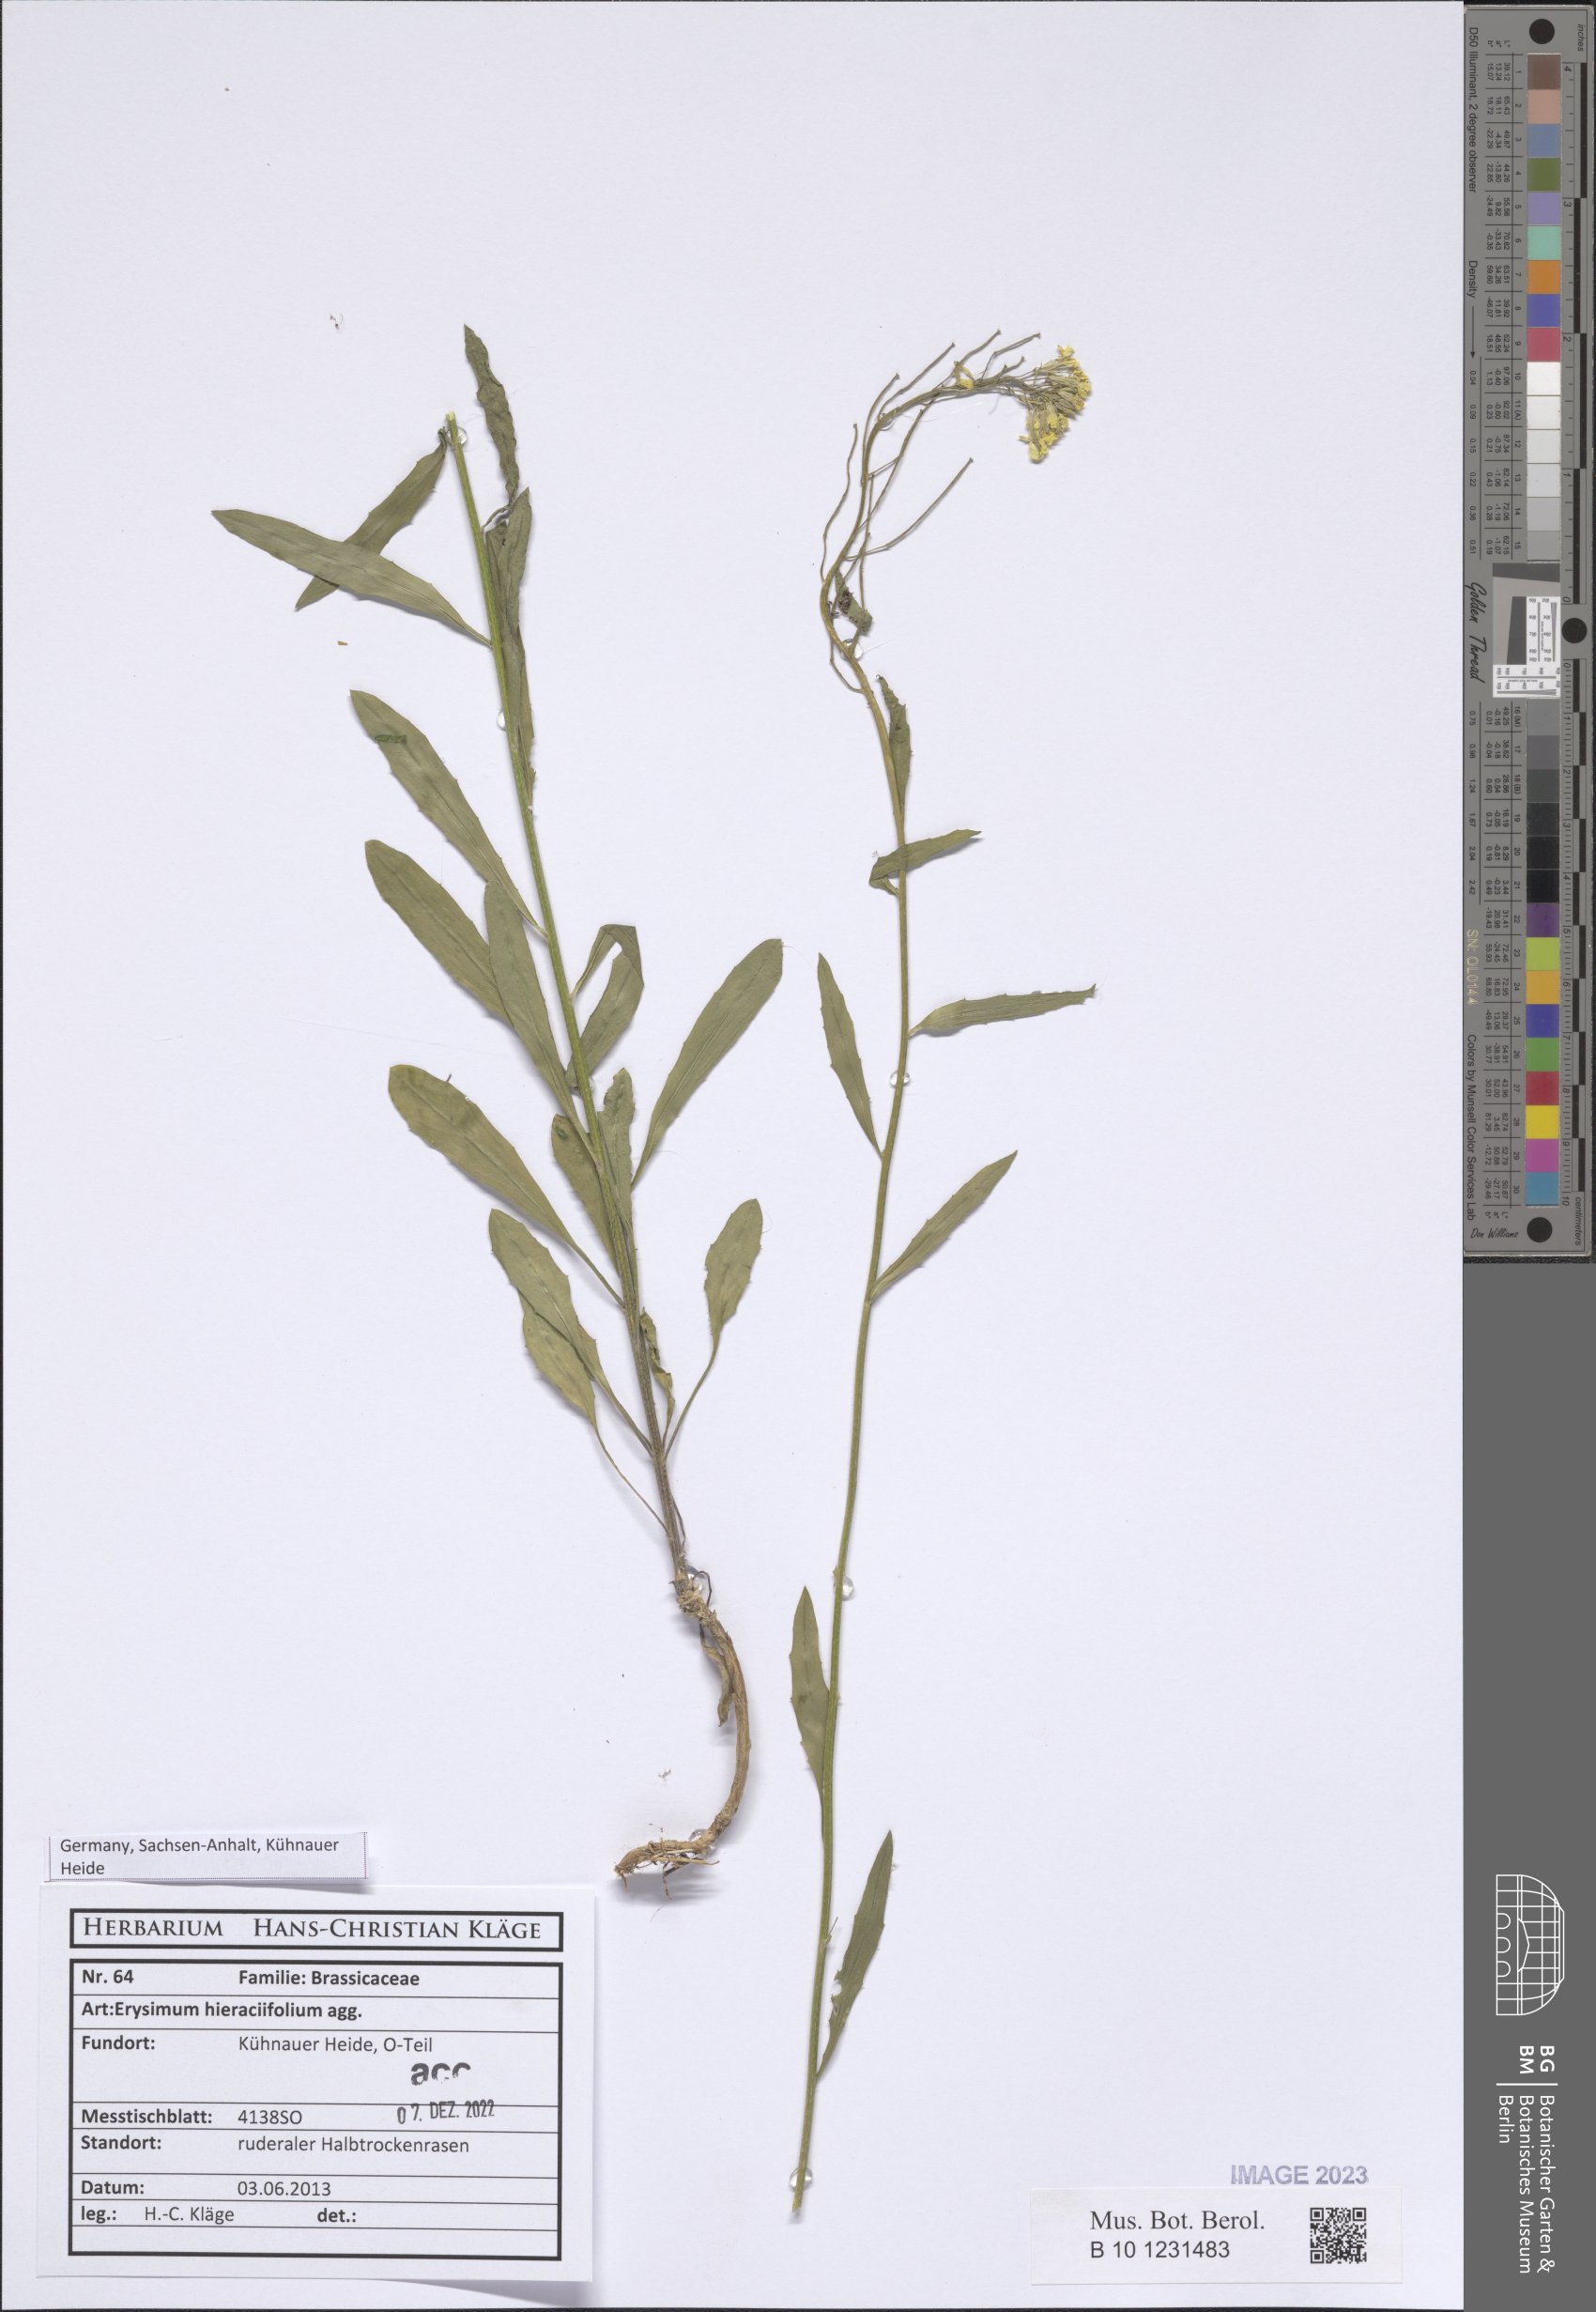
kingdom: Plantae
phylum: Tracheophyta
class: Magnoliopsida
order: Brassicales
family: Brassicaceae
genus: Erysimum
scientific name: Erysimum hieraciifolium
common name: European wallflower
